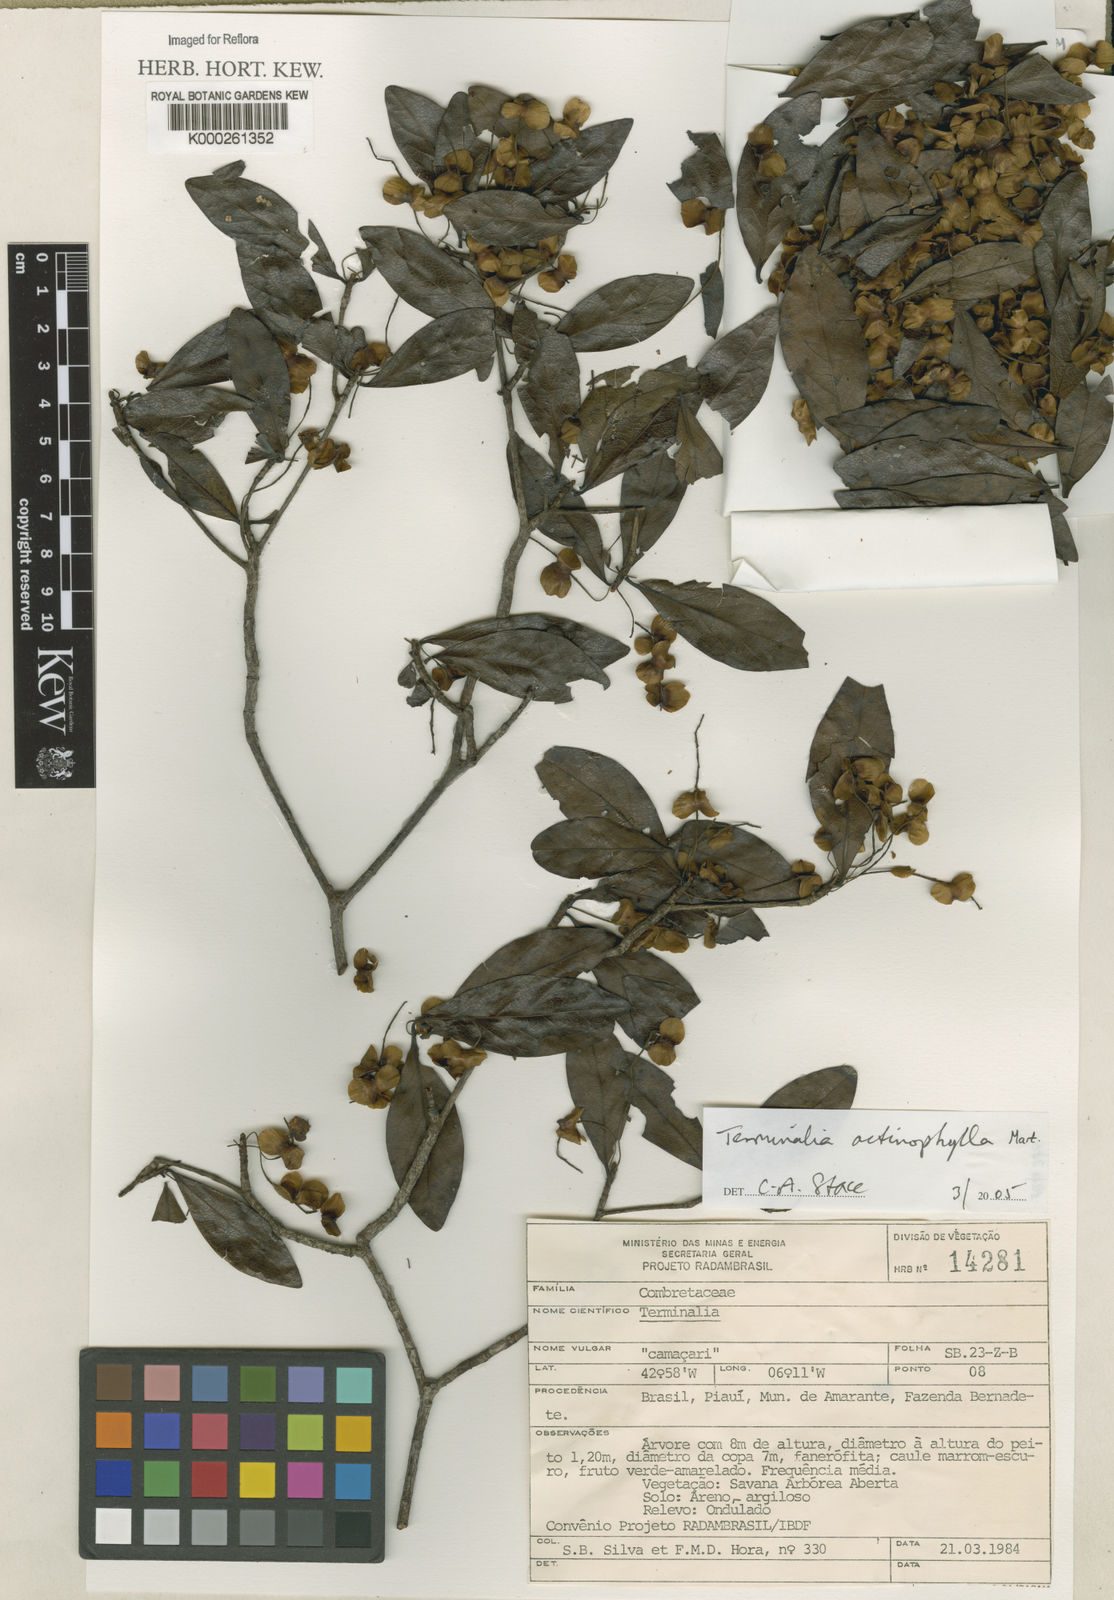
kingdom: Plantae
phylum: Tracheophyta
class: Magnoliopsida
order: Myrtales
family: Combretaceae
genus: Terminalia
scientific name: Terminalia actinophylla
